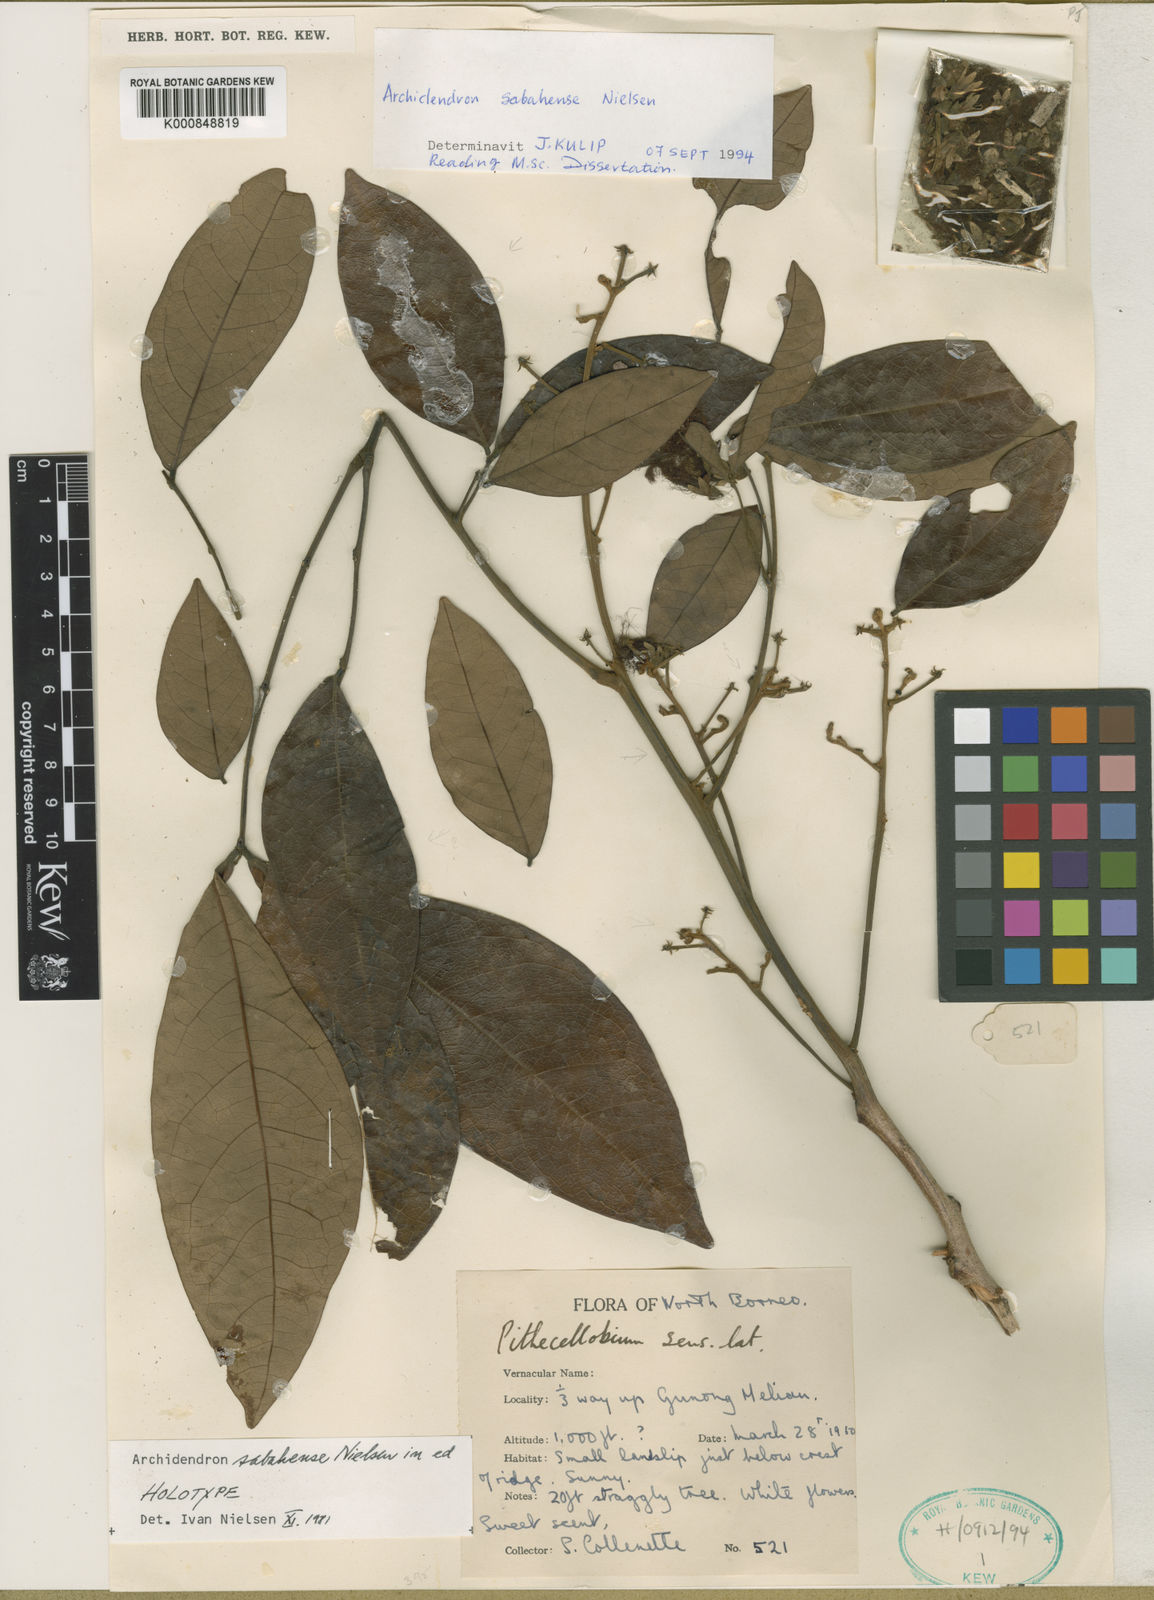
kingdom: Plantae
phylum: Tracheophyta
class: Magnoliopsida
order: Fabales
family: Fabaceae
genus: Archidendron
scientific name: Archidendron sabahense
